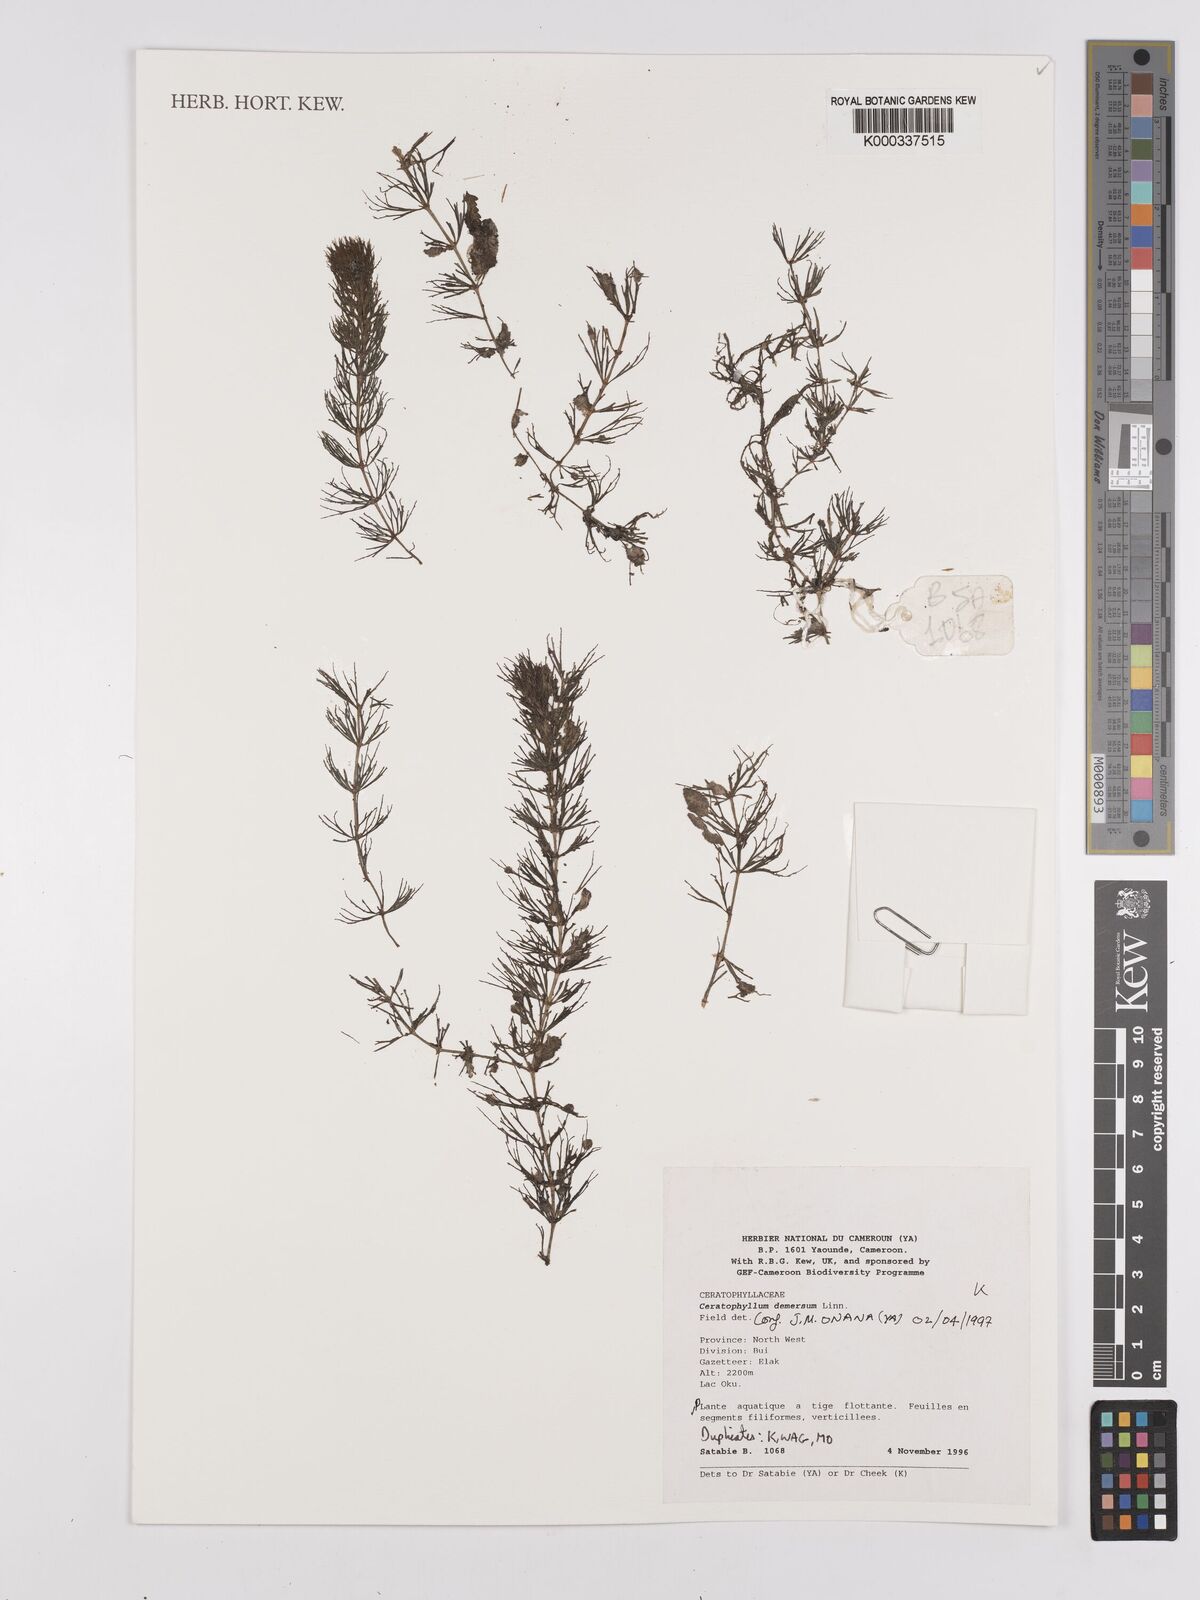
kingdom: Plantae
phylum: Tracheophyta
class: Magnoliopsida
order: Ceratophyllales
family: Ceratophyllaceae
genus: Ceratophyllum
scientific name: Ceratophyllum demersum
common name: Rigid hornwort
